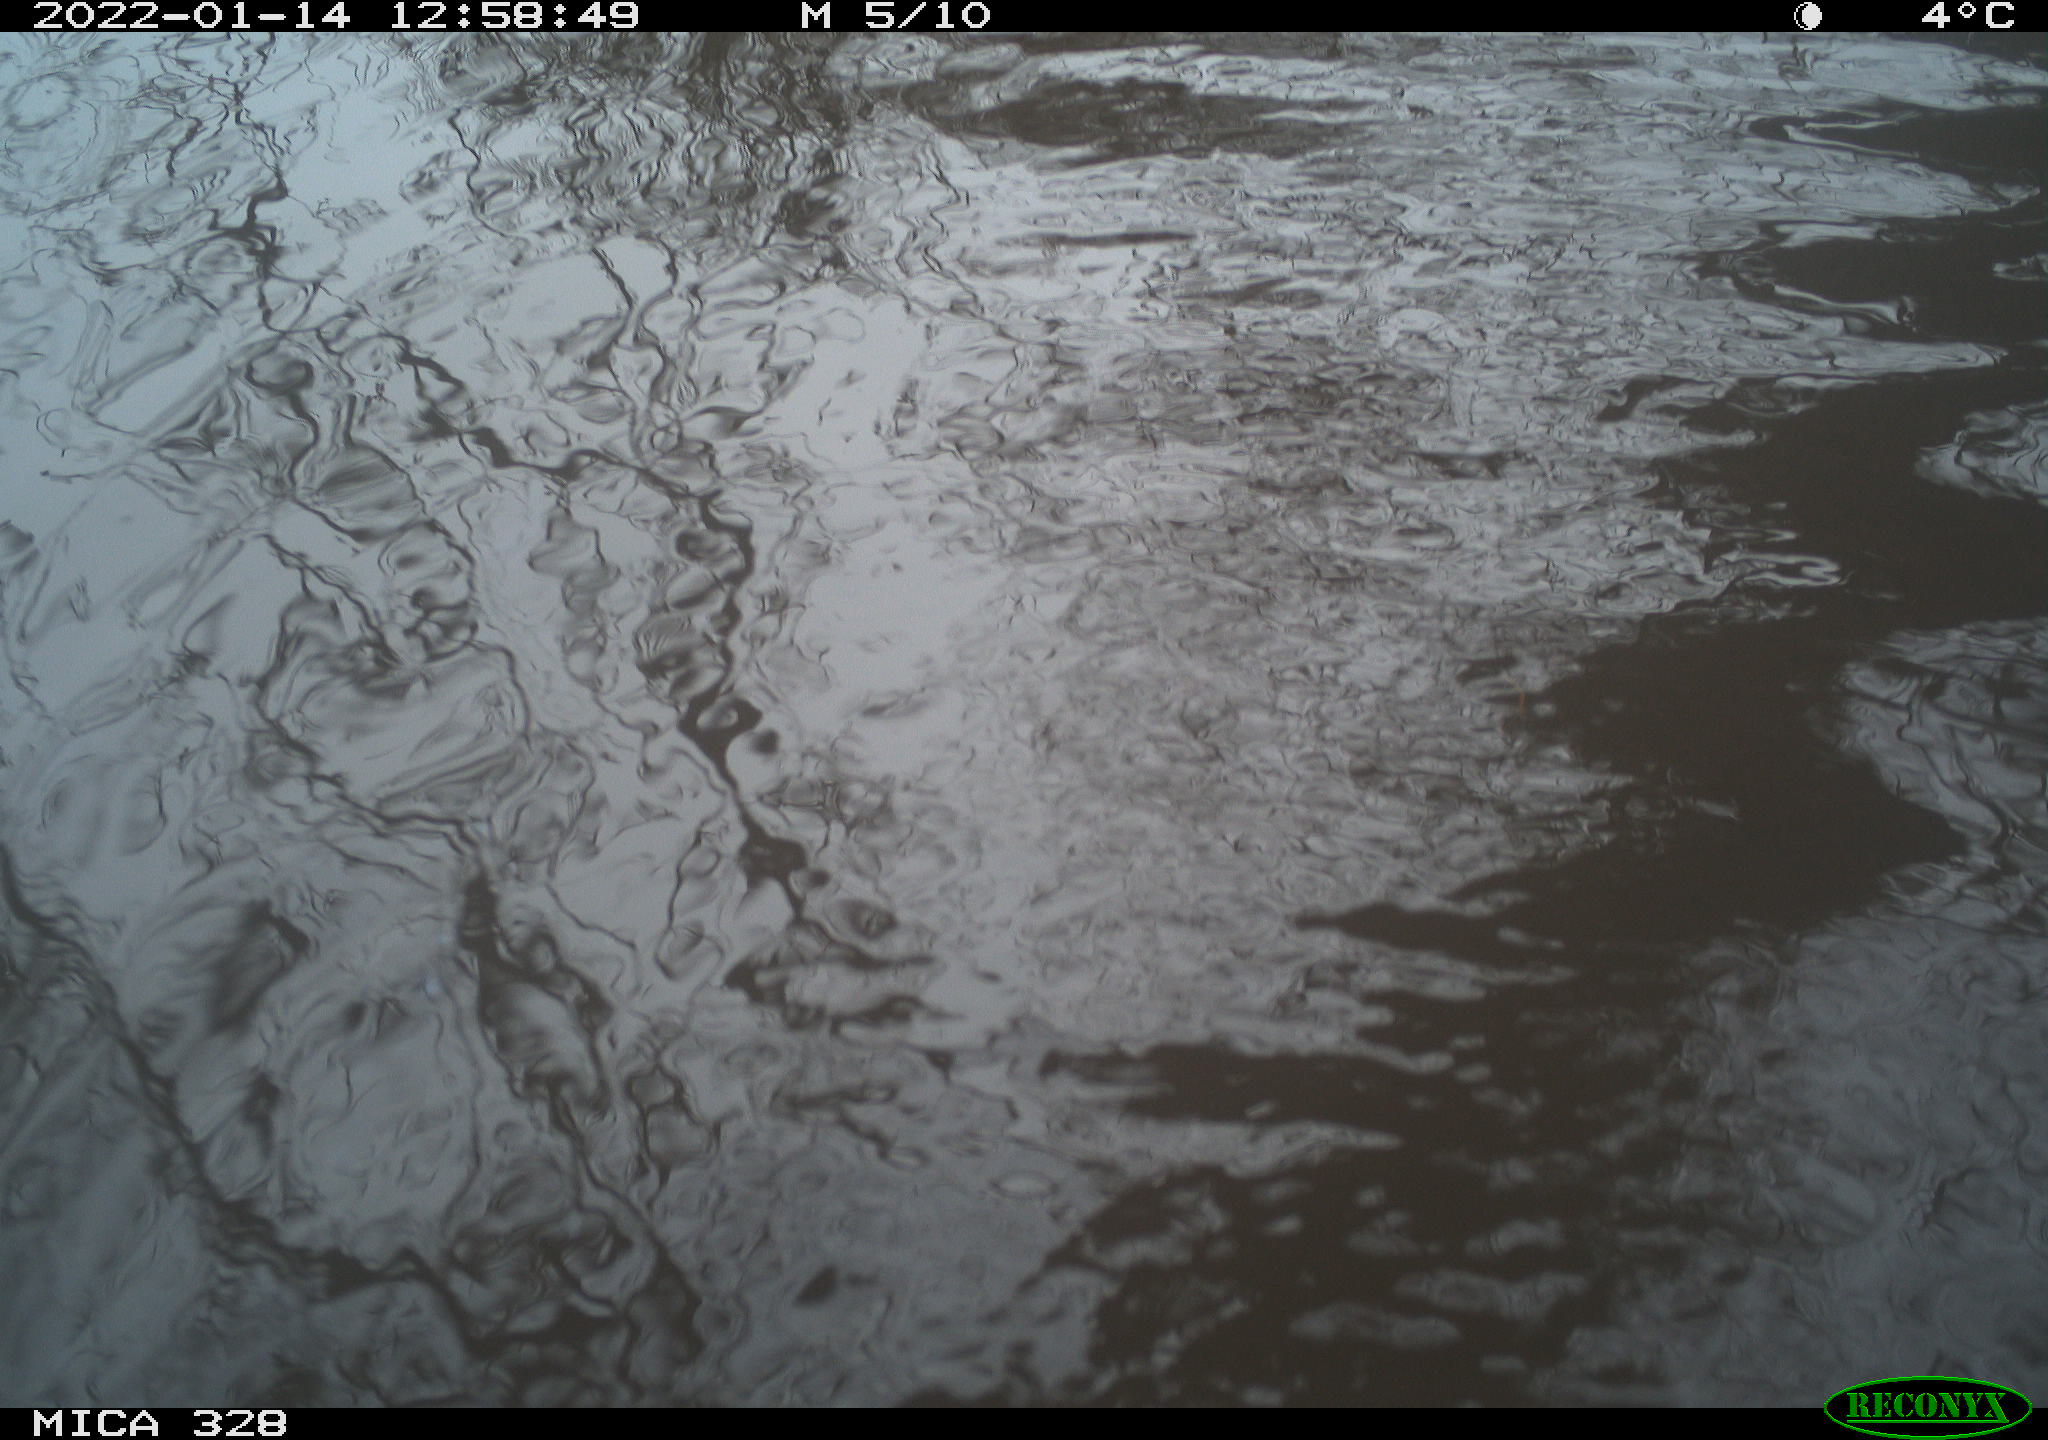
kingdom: Animalia
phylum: Chordata
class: Mammalia
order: Rodentia
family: Cricetidae
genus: Ondatra
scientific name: Ondatra zibethicus
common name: Muskrat
